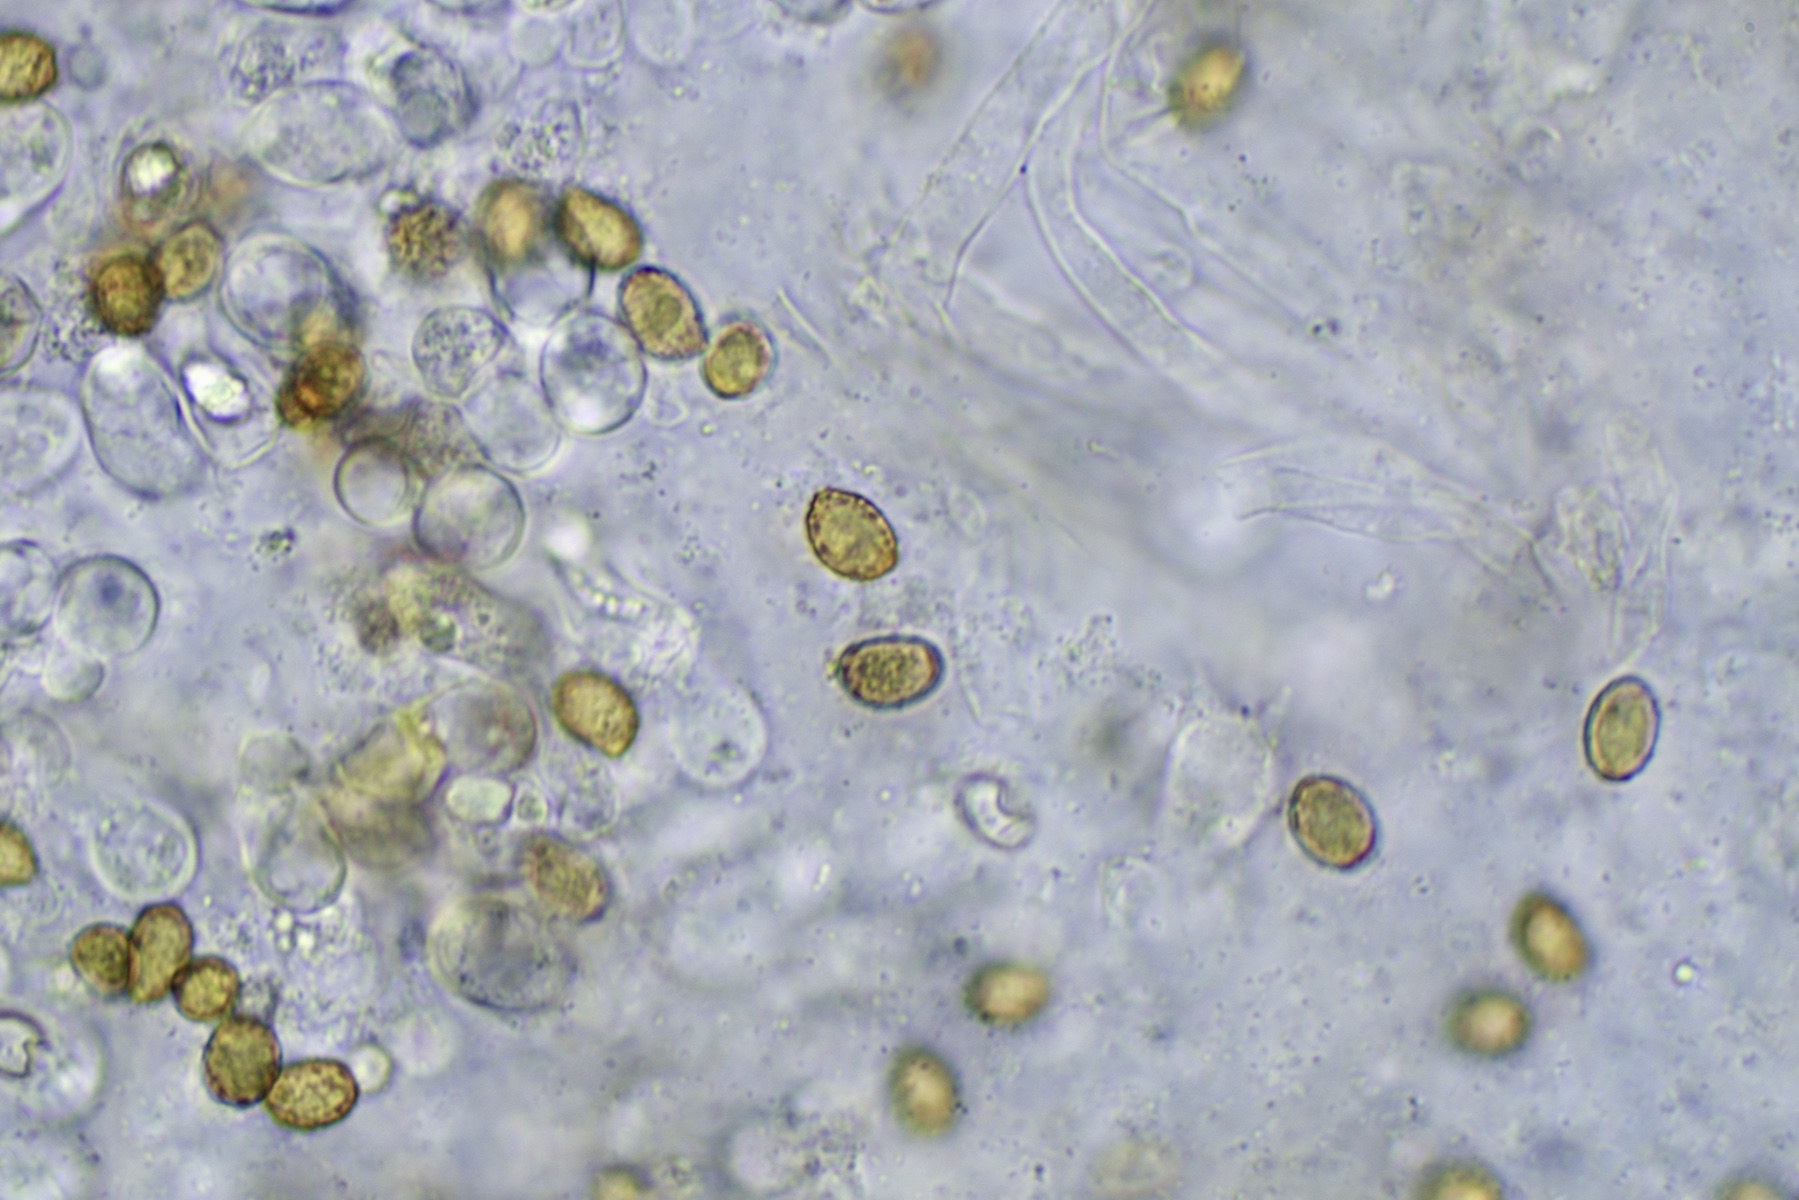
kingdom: Fungi
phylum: Basidiomycota
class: Agaricomycetes
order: Agaricales
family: Cortinariaceae
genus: Cortinarius
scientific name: Cortinarius
